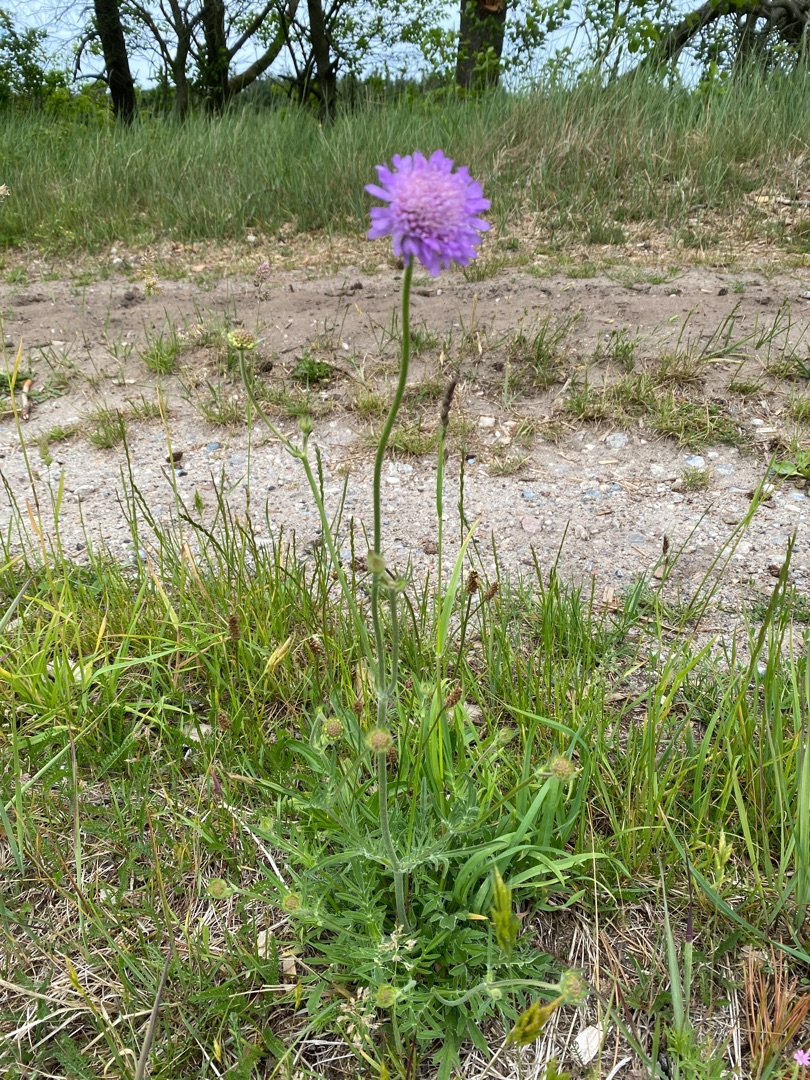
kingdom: Plantae
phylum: Tracheophyta
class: Magnoliopsida
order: Dipsacales
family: Caprifoliaceae
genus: Knautia
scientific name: Knautia arvensis
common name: Blåhat
